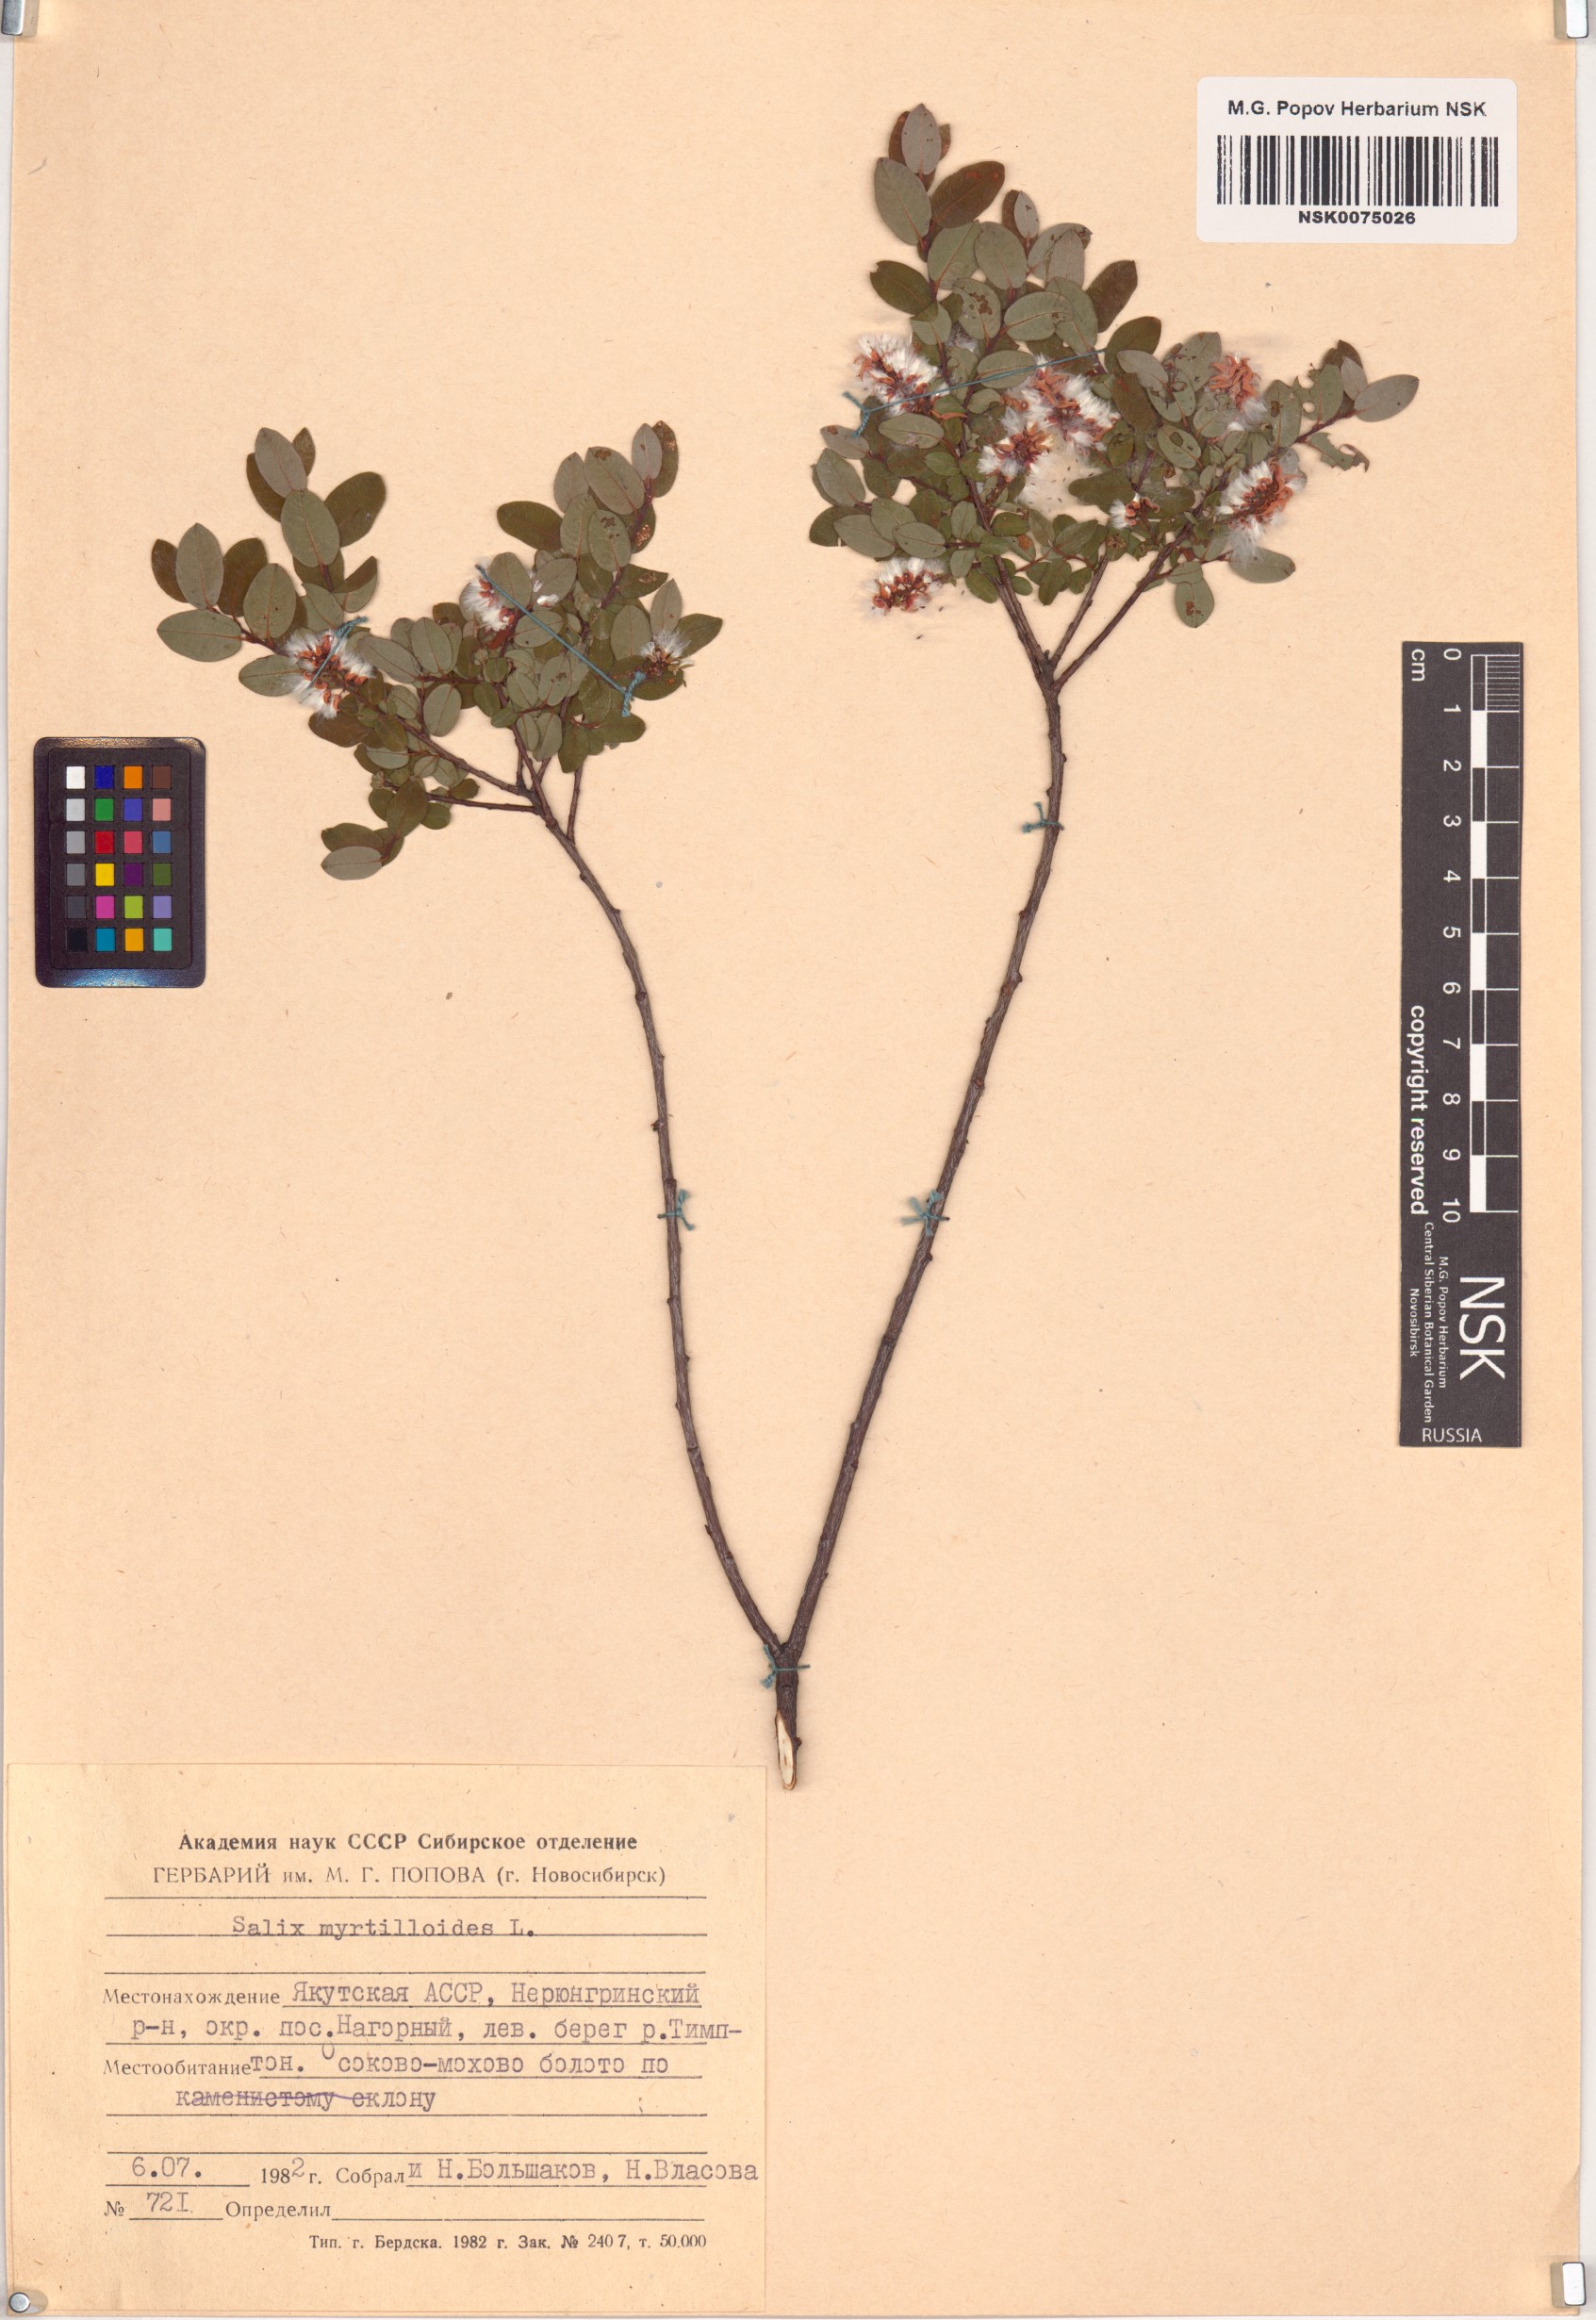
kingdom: Plantae
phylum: Tracheophyta
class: Magnoliopsida
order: Malpighiales
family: Salicaceae
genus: Salix
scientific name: Salix myrtilloides
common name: Myrtle-leaved willow
